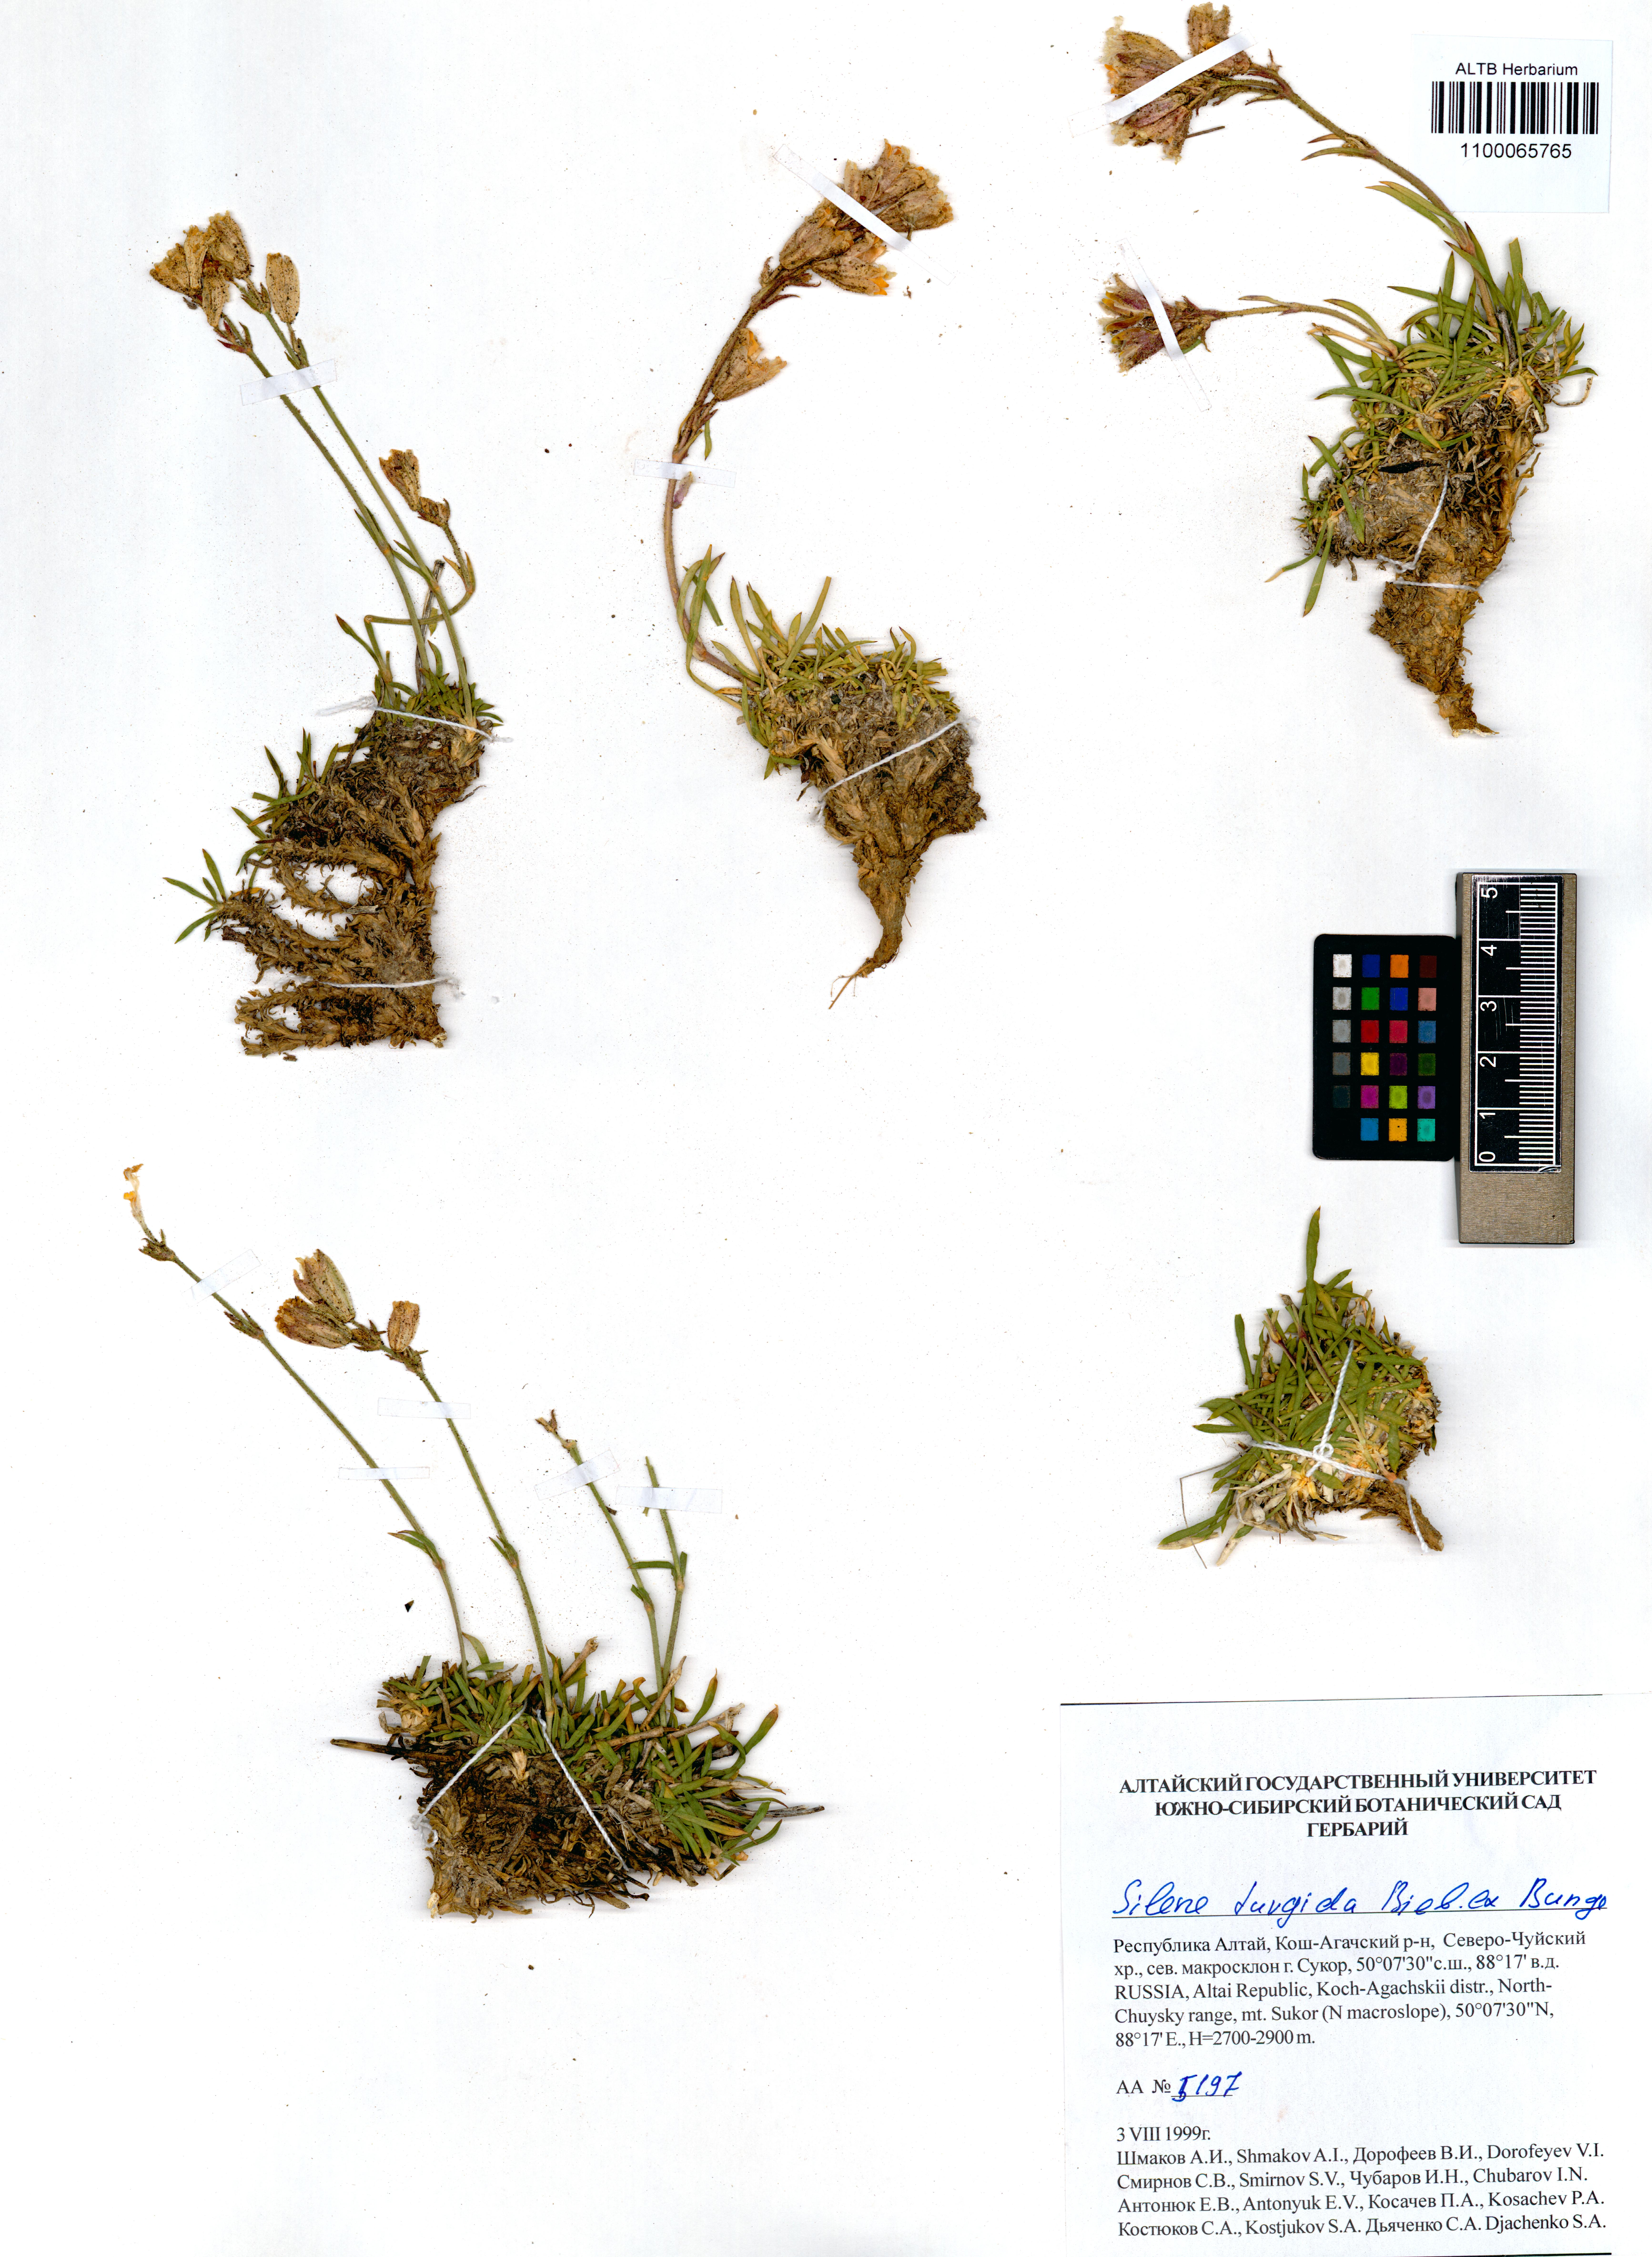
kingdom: Plantae
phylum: Tracheophyta
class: Magnoliopsida
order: Caryophyllales
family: Caryophyllaceae
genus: Silene
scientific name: Silene turgida
